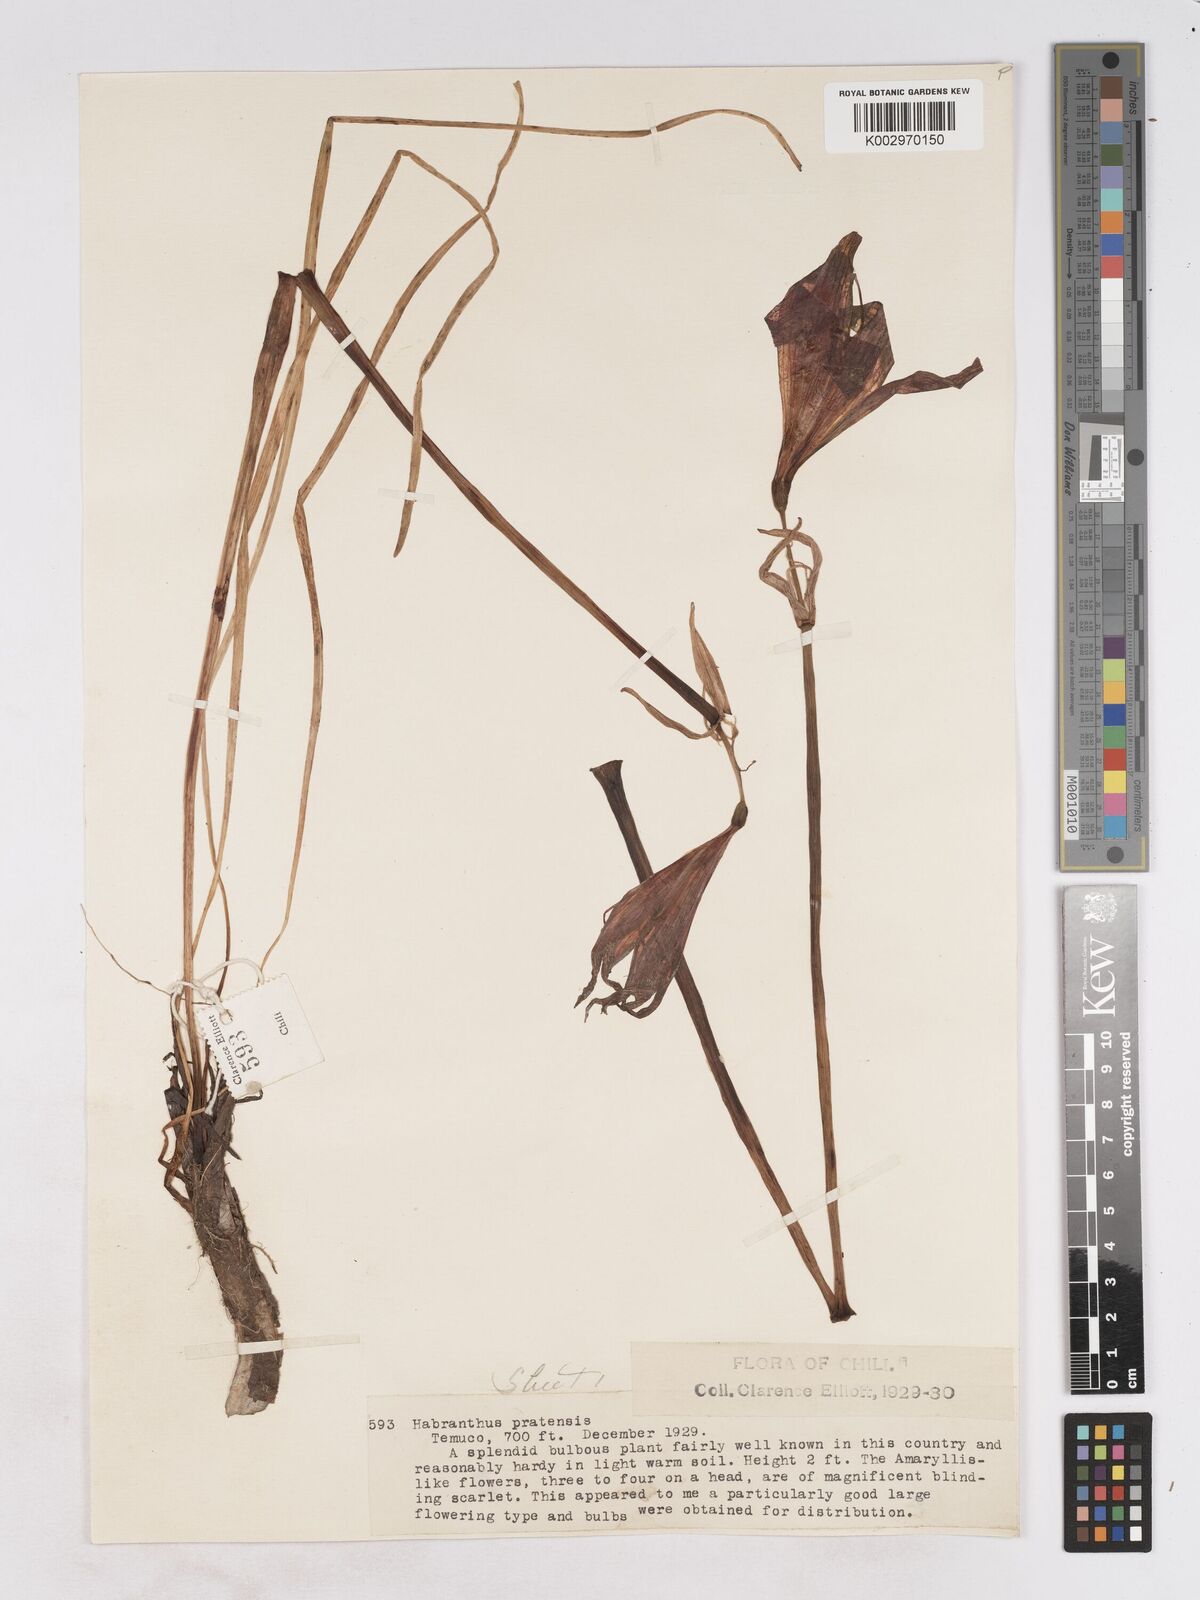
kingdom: Plantae
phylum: Tracheophyta
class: Liliopsida
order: Asparagales
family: Amaryllidaceae
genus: Phycella
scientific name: Phycella chilensis
